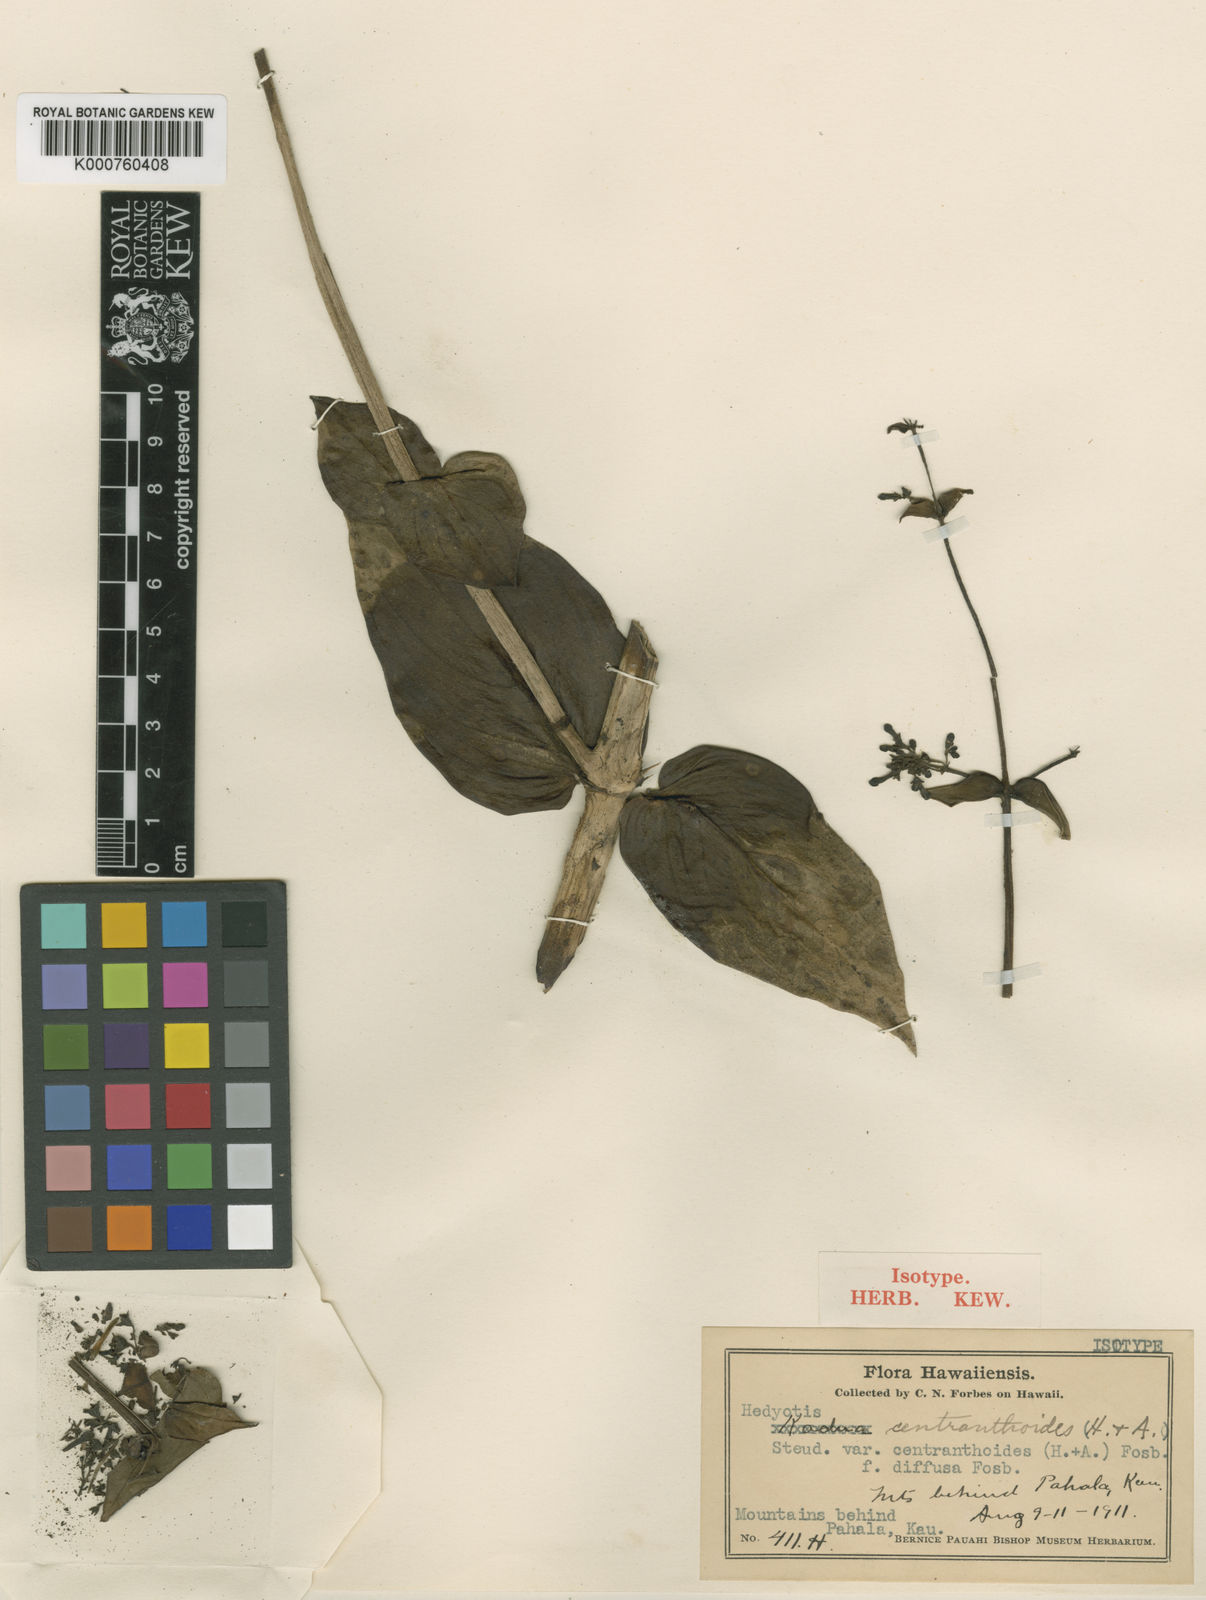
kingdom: Plantae
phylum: Tracheophyta
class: Magnoliopsida
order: Gentianales
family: Rubiaceae
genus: Kadua
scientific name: Kadua centranthoides
